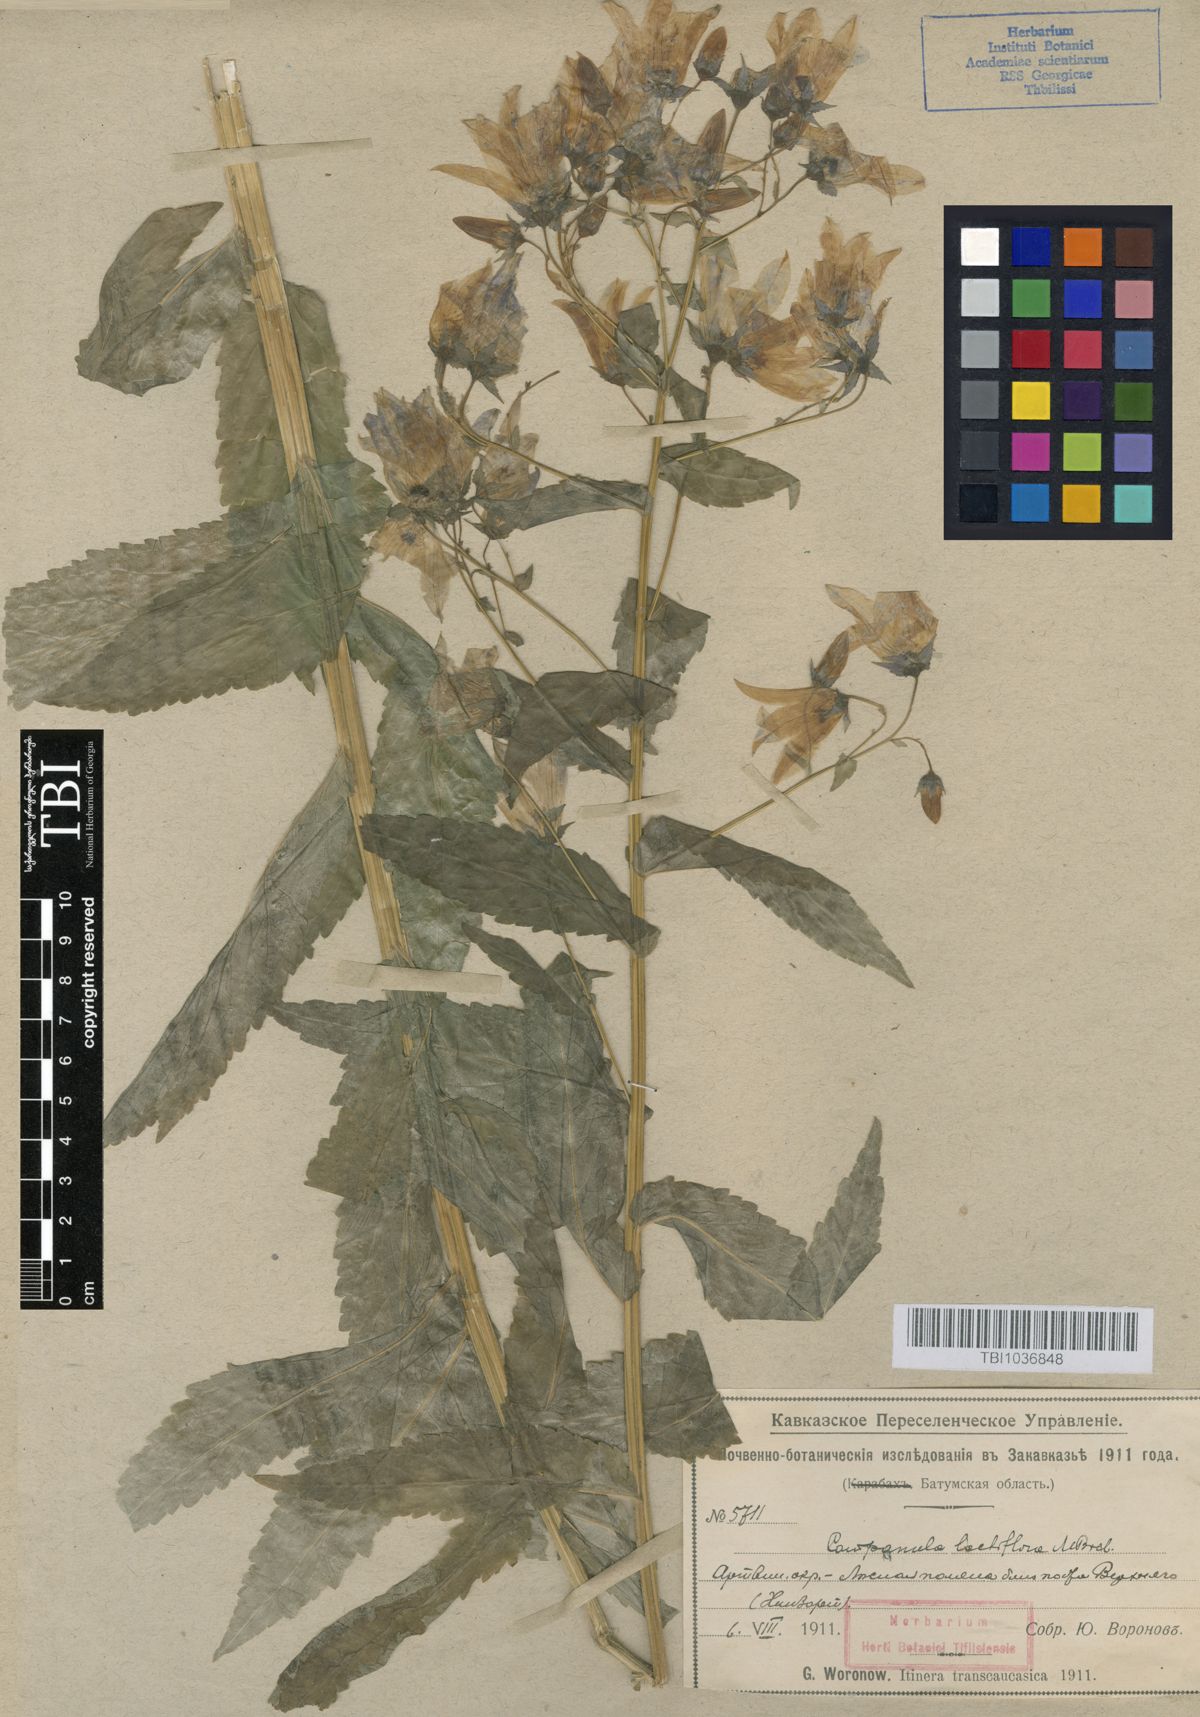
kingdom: Plantae
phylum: Tracheophyta
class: Magnoliopsida
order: Asterales
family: Campanulaceae
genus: Campanula
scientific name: Campanula lactiflora
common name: Milky bellflower
